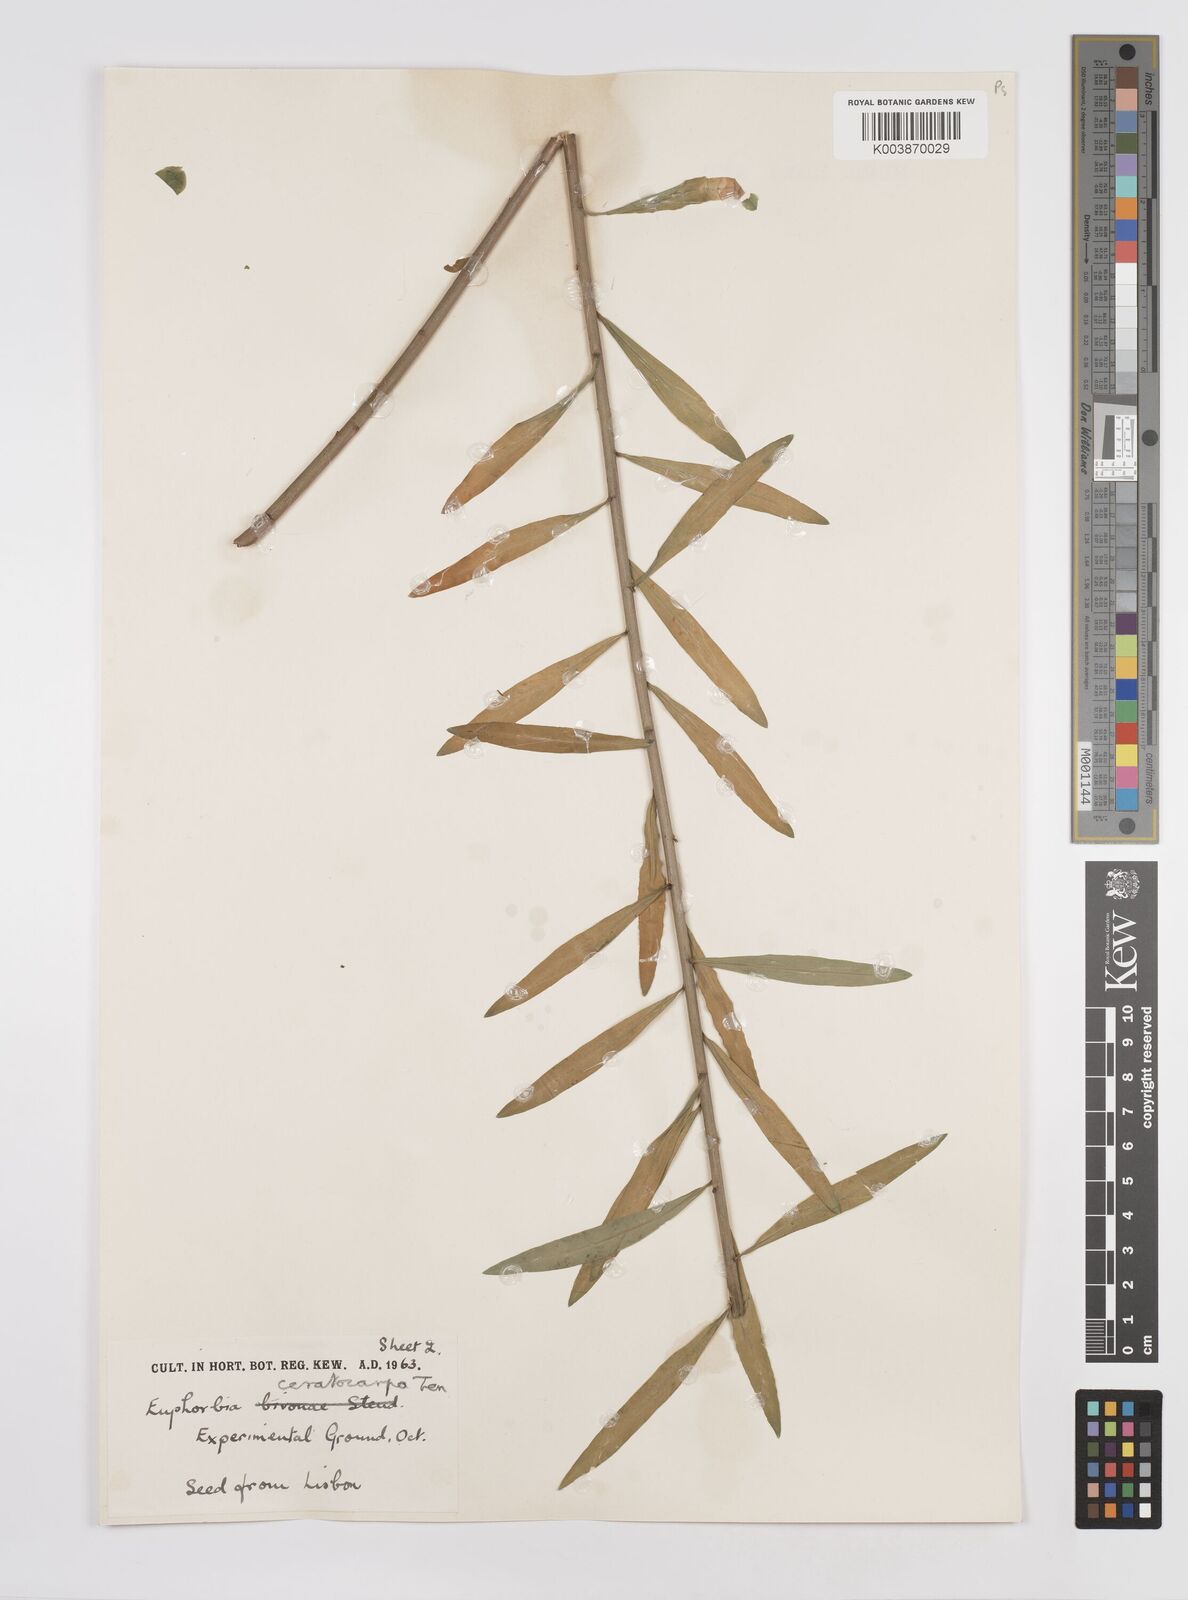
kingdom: Plantae
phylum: Tracheophyta
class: Magnoliopsida
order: Malpighiales
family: Euphorbiaceae
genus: Euphorbia
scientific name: Euphorbia ceratocarpa
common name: Horned spurge
